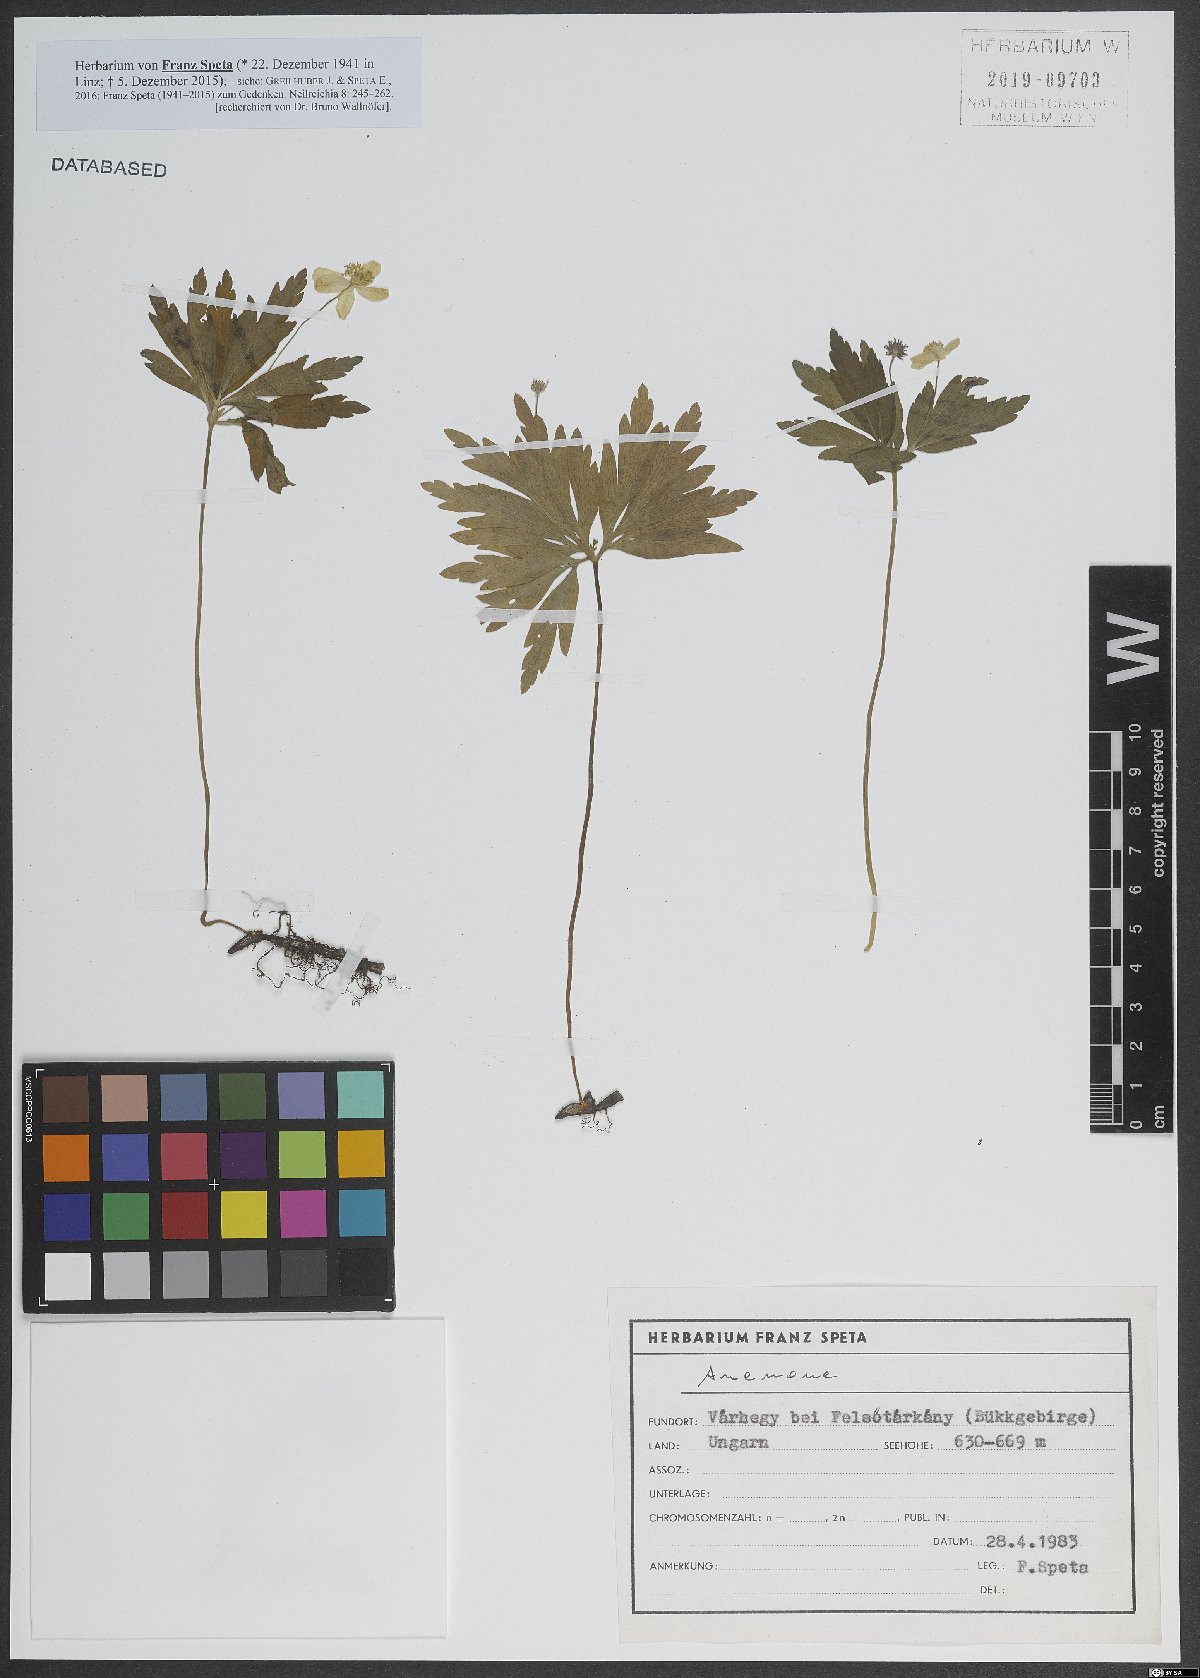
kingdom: Plantae
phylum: Tracheophyta
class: Magnoliopsida
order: Ranunculales
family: Ranunculaceae
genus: Anemone
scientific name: Anemone
